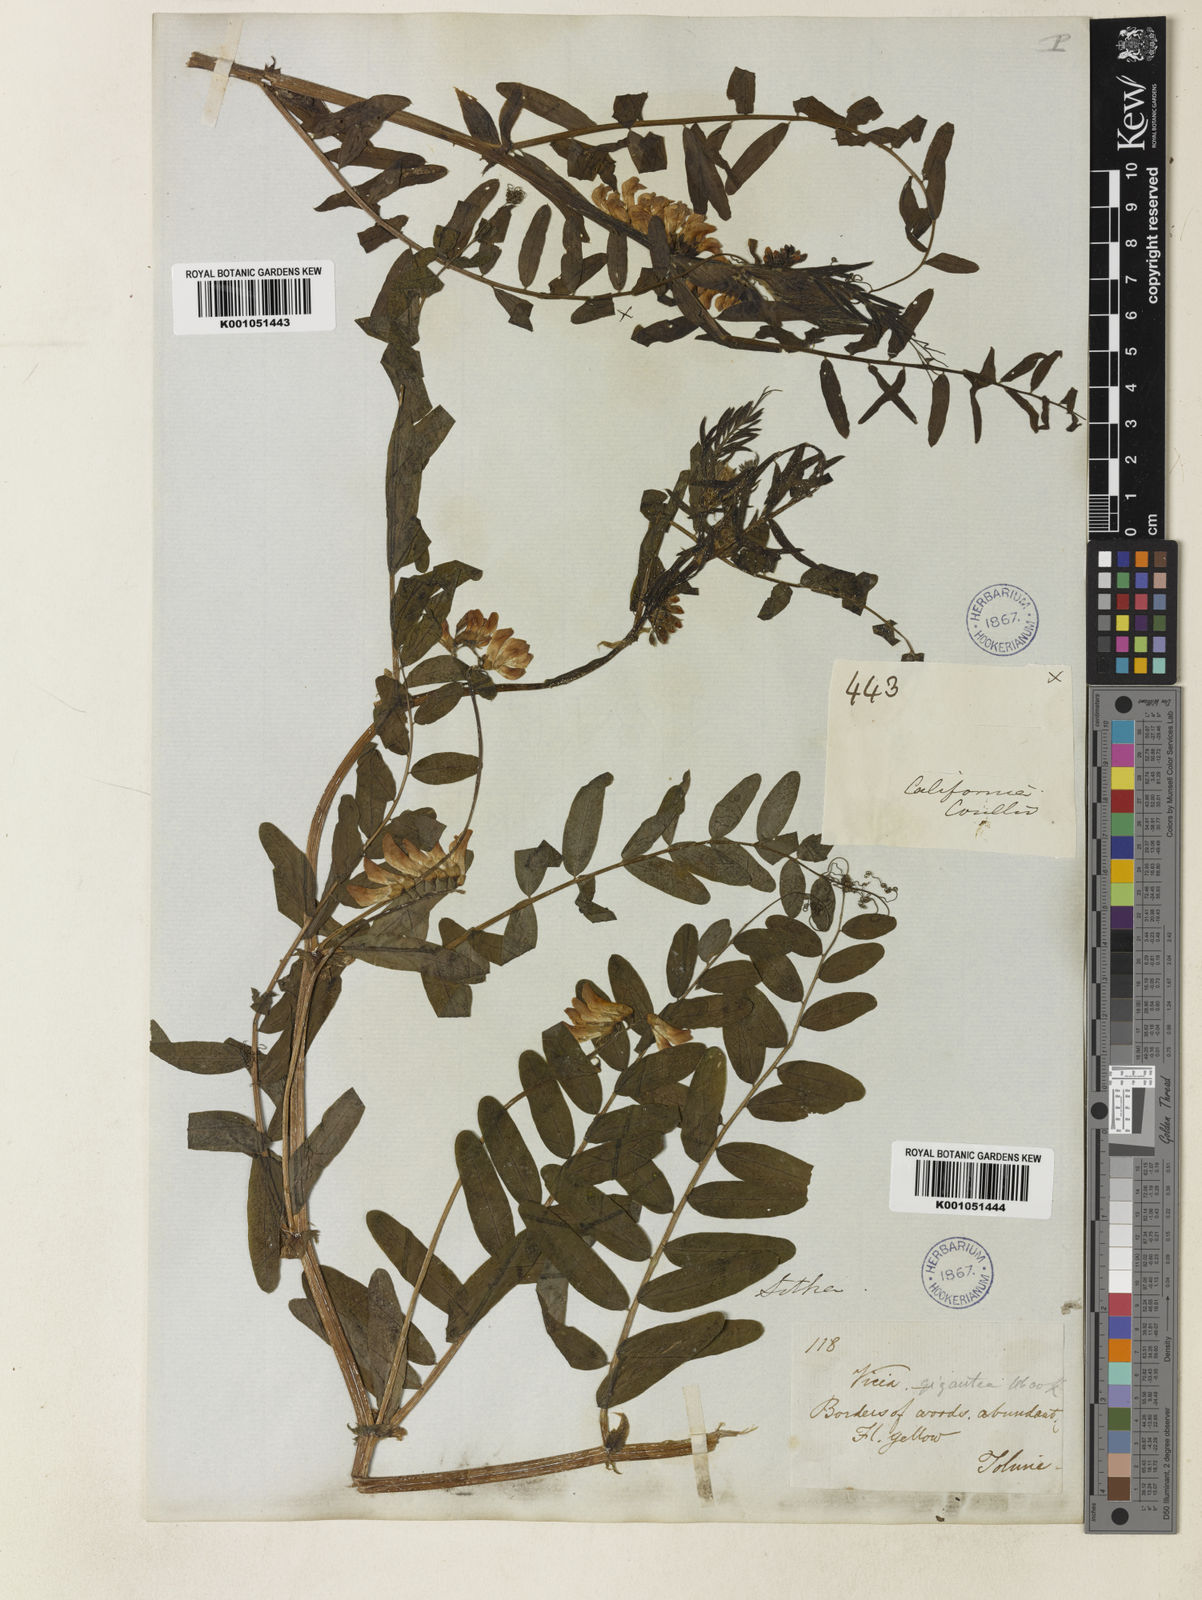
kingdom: Plantae
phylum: Tracheophyta
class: Magnoliopsida
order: Fabales
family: Fabaceae
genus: Vicia
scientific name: Vicia nigricans
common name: Black vetch
